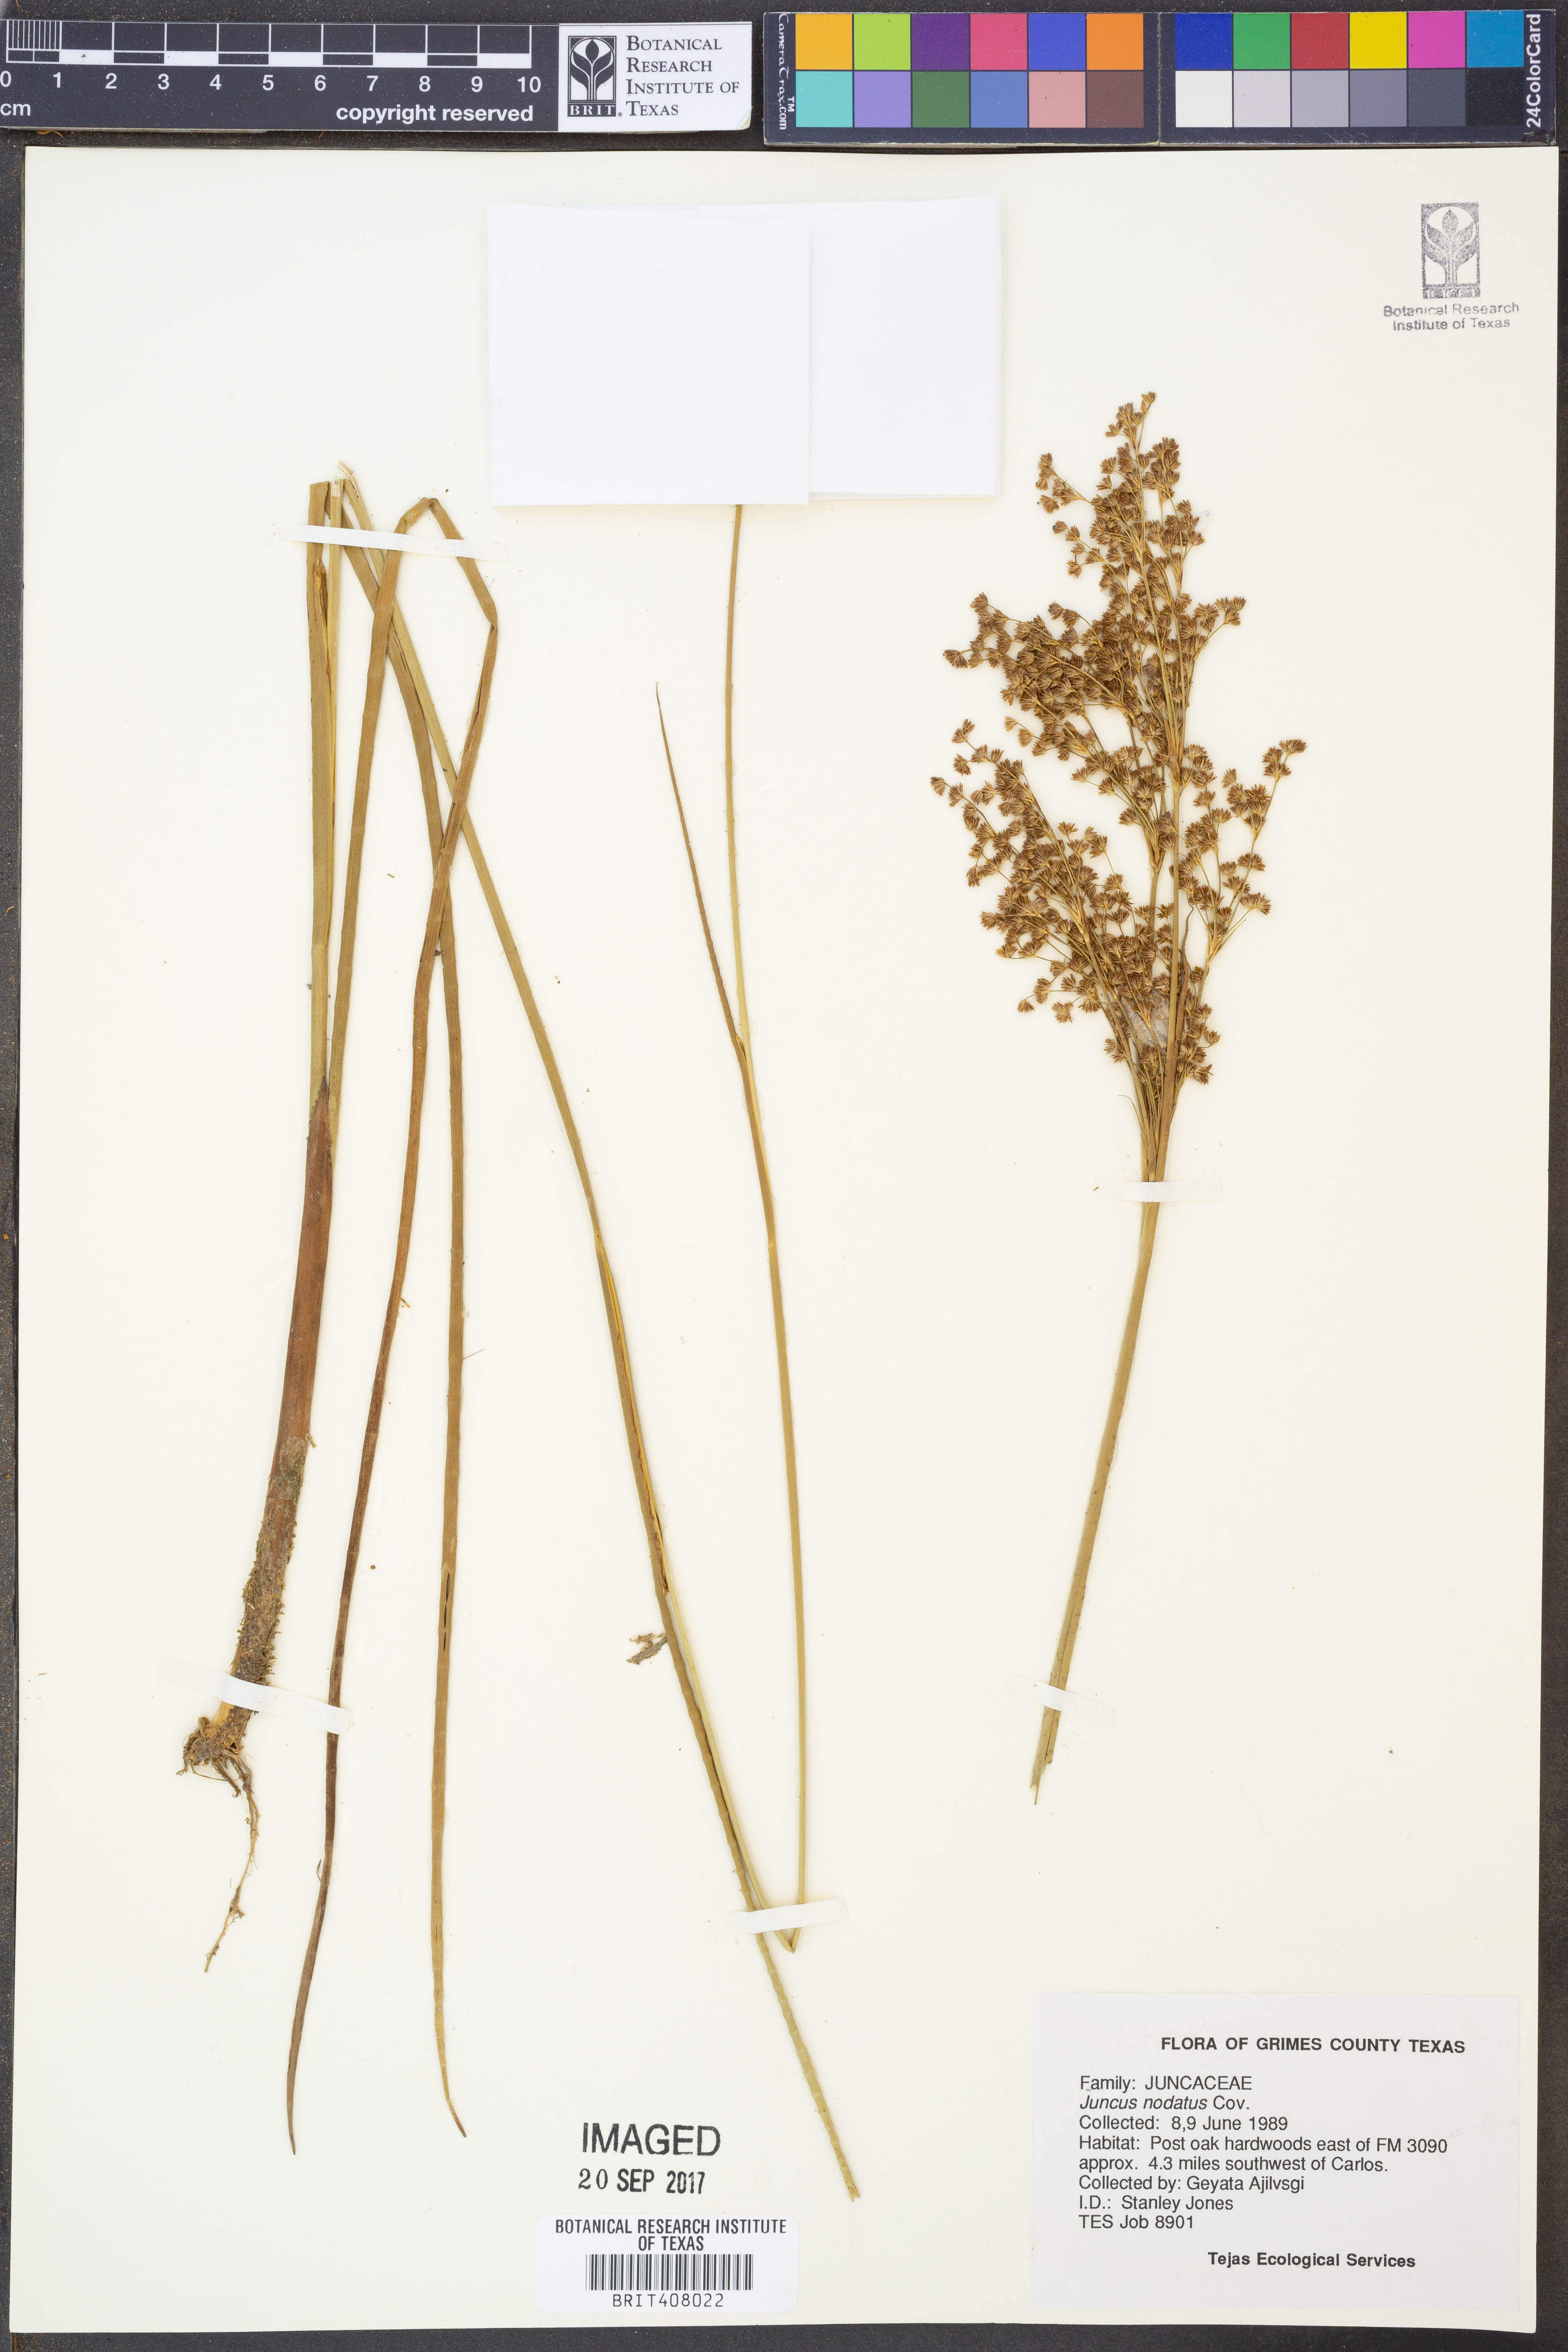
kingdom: Plantae
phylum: Tracheophyta
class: Liliopsida
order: Poales
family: Juncaceae
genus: Juncus
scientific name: Juncus nodatus
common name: Stout rush
